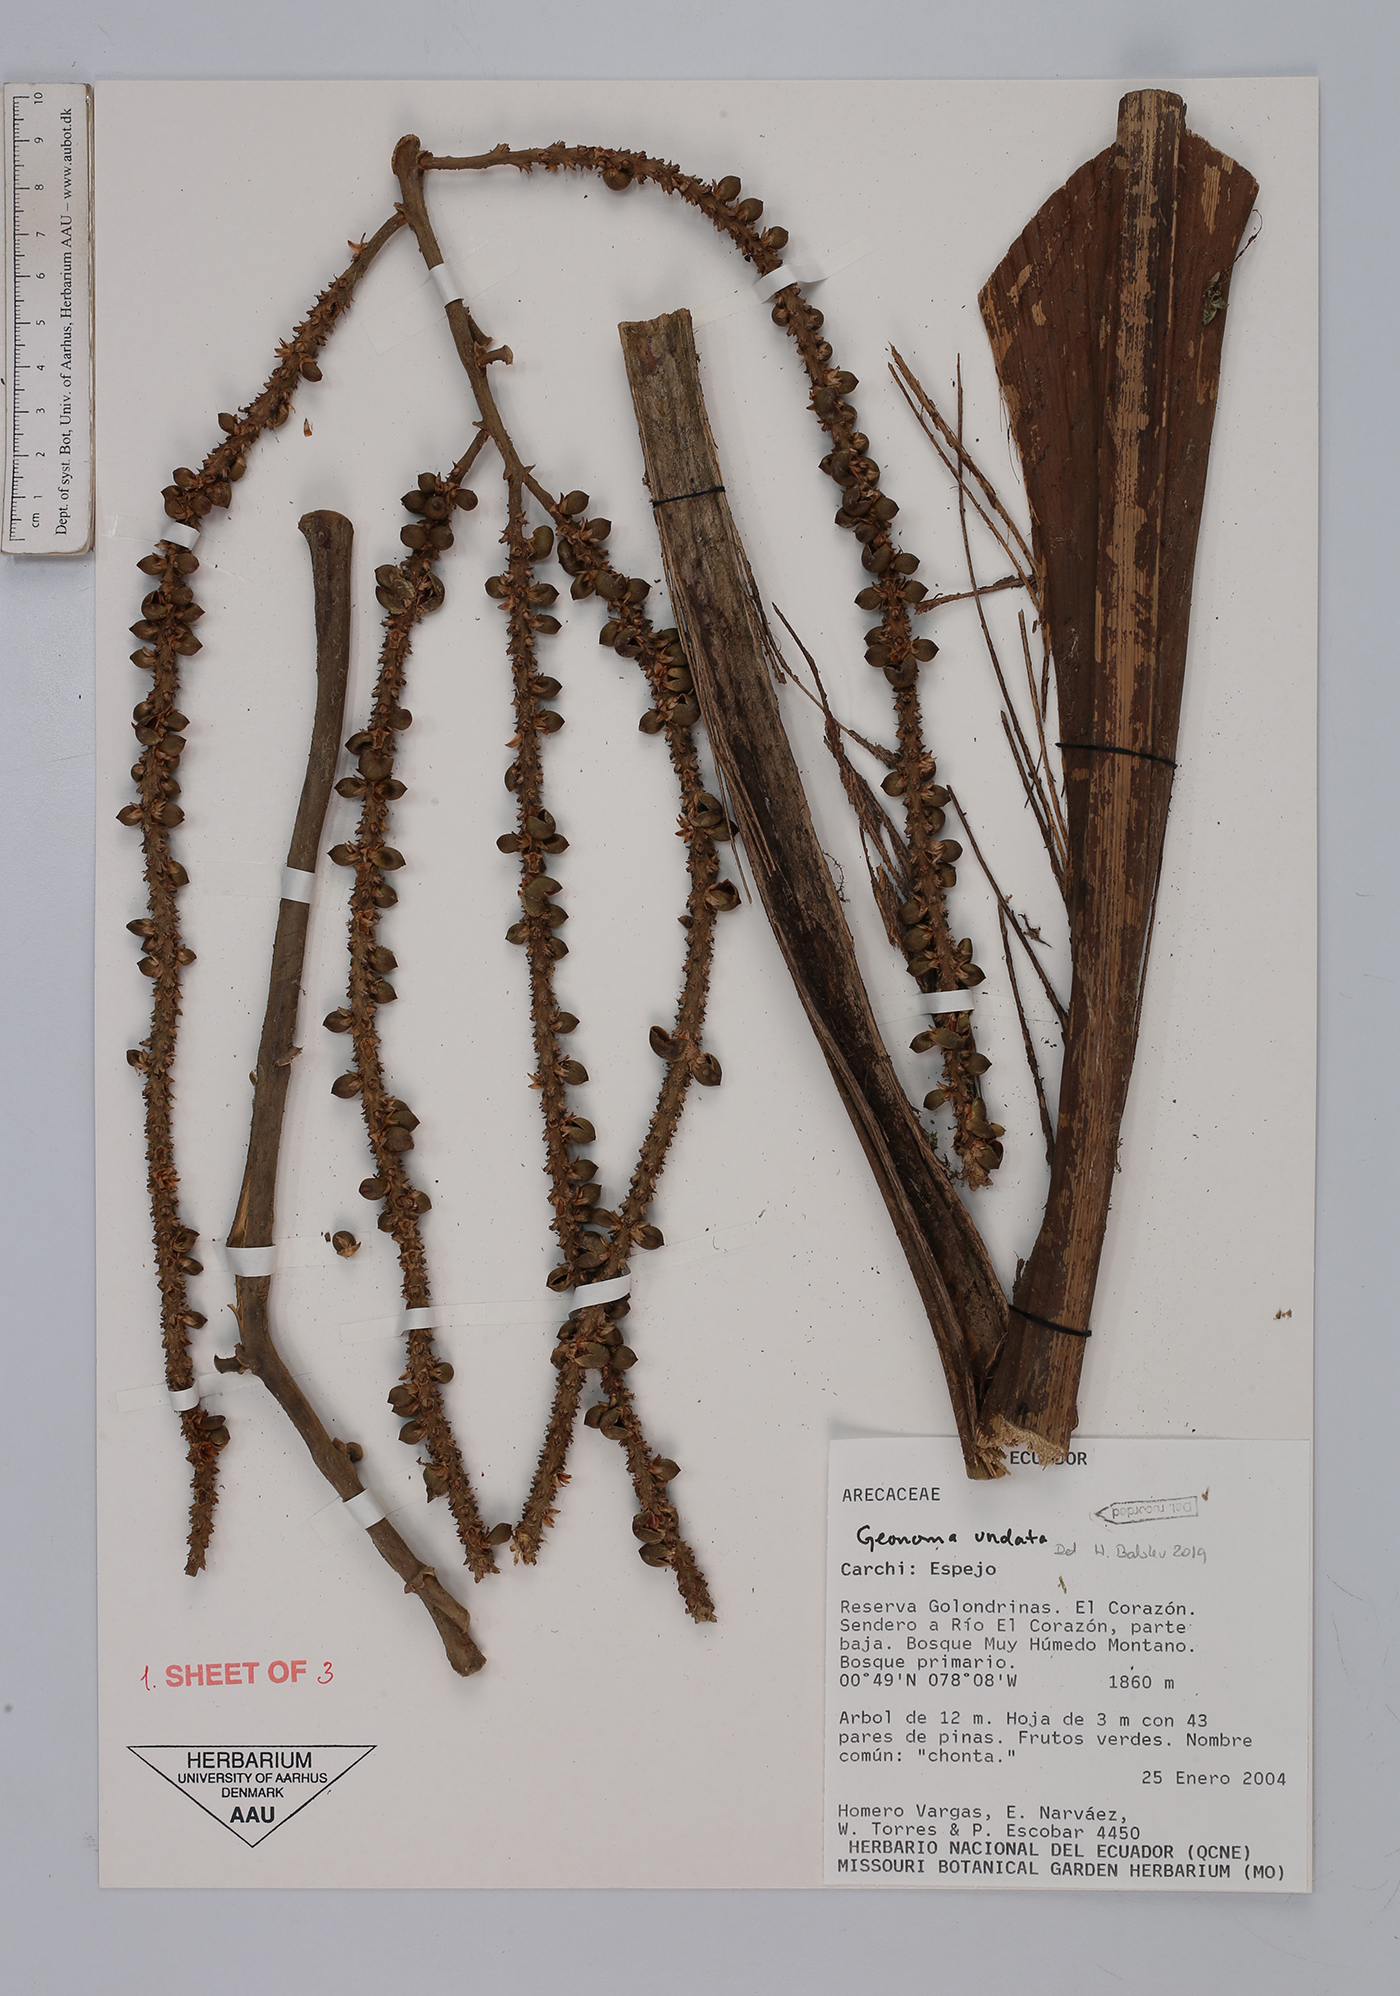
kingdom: Plantae
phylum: Tracheophyta
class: Liliopsida
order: Arecales
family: Arecaceae
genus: Geonoma
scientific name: Geonoma undata
